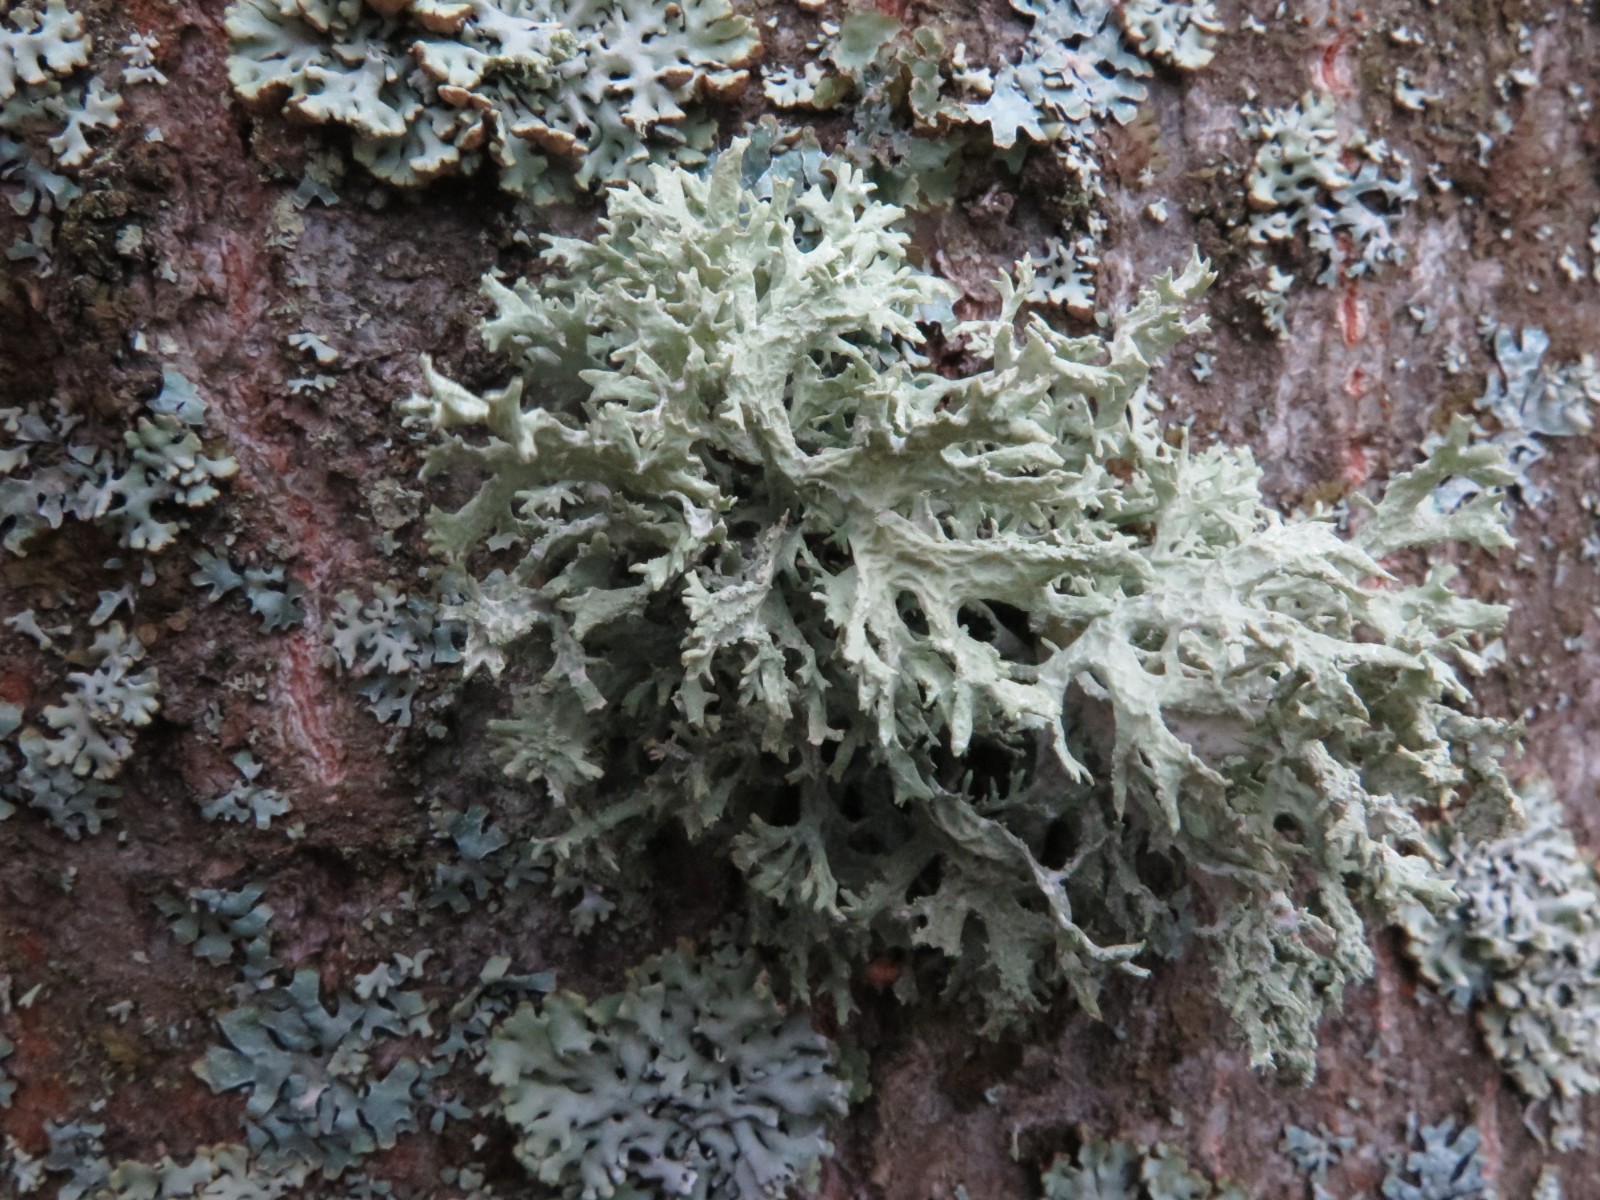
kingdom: Fungi
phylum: Ascomycota
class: Lecanoromycetes
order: Lecanorales
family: Parmeliaceae
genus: Evernia
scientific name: Evernia prunastri
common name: almindelig slåenlav
